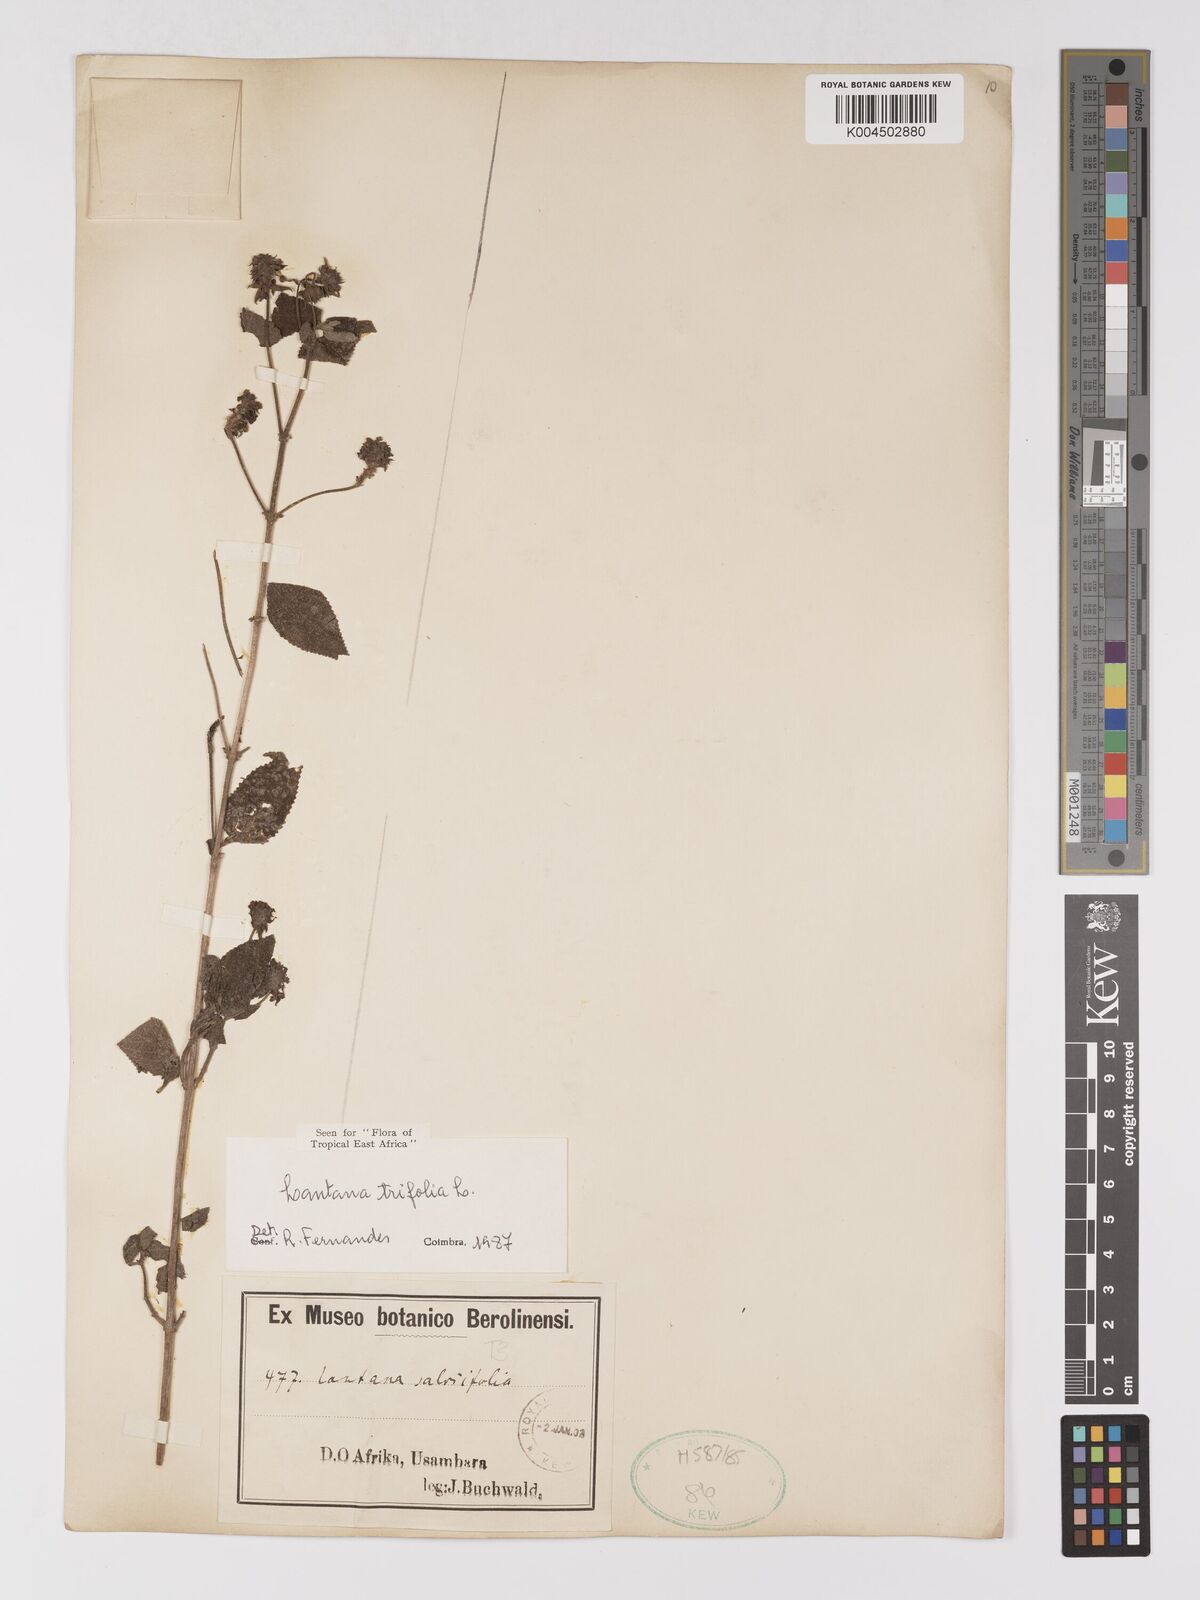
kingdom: Plantae
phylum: Tracheophyta
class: Magnoliopsida
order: Lamiales
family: Verbenaceae
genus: Lantana
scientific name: Lantana trifolia
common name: Sweet-sage
